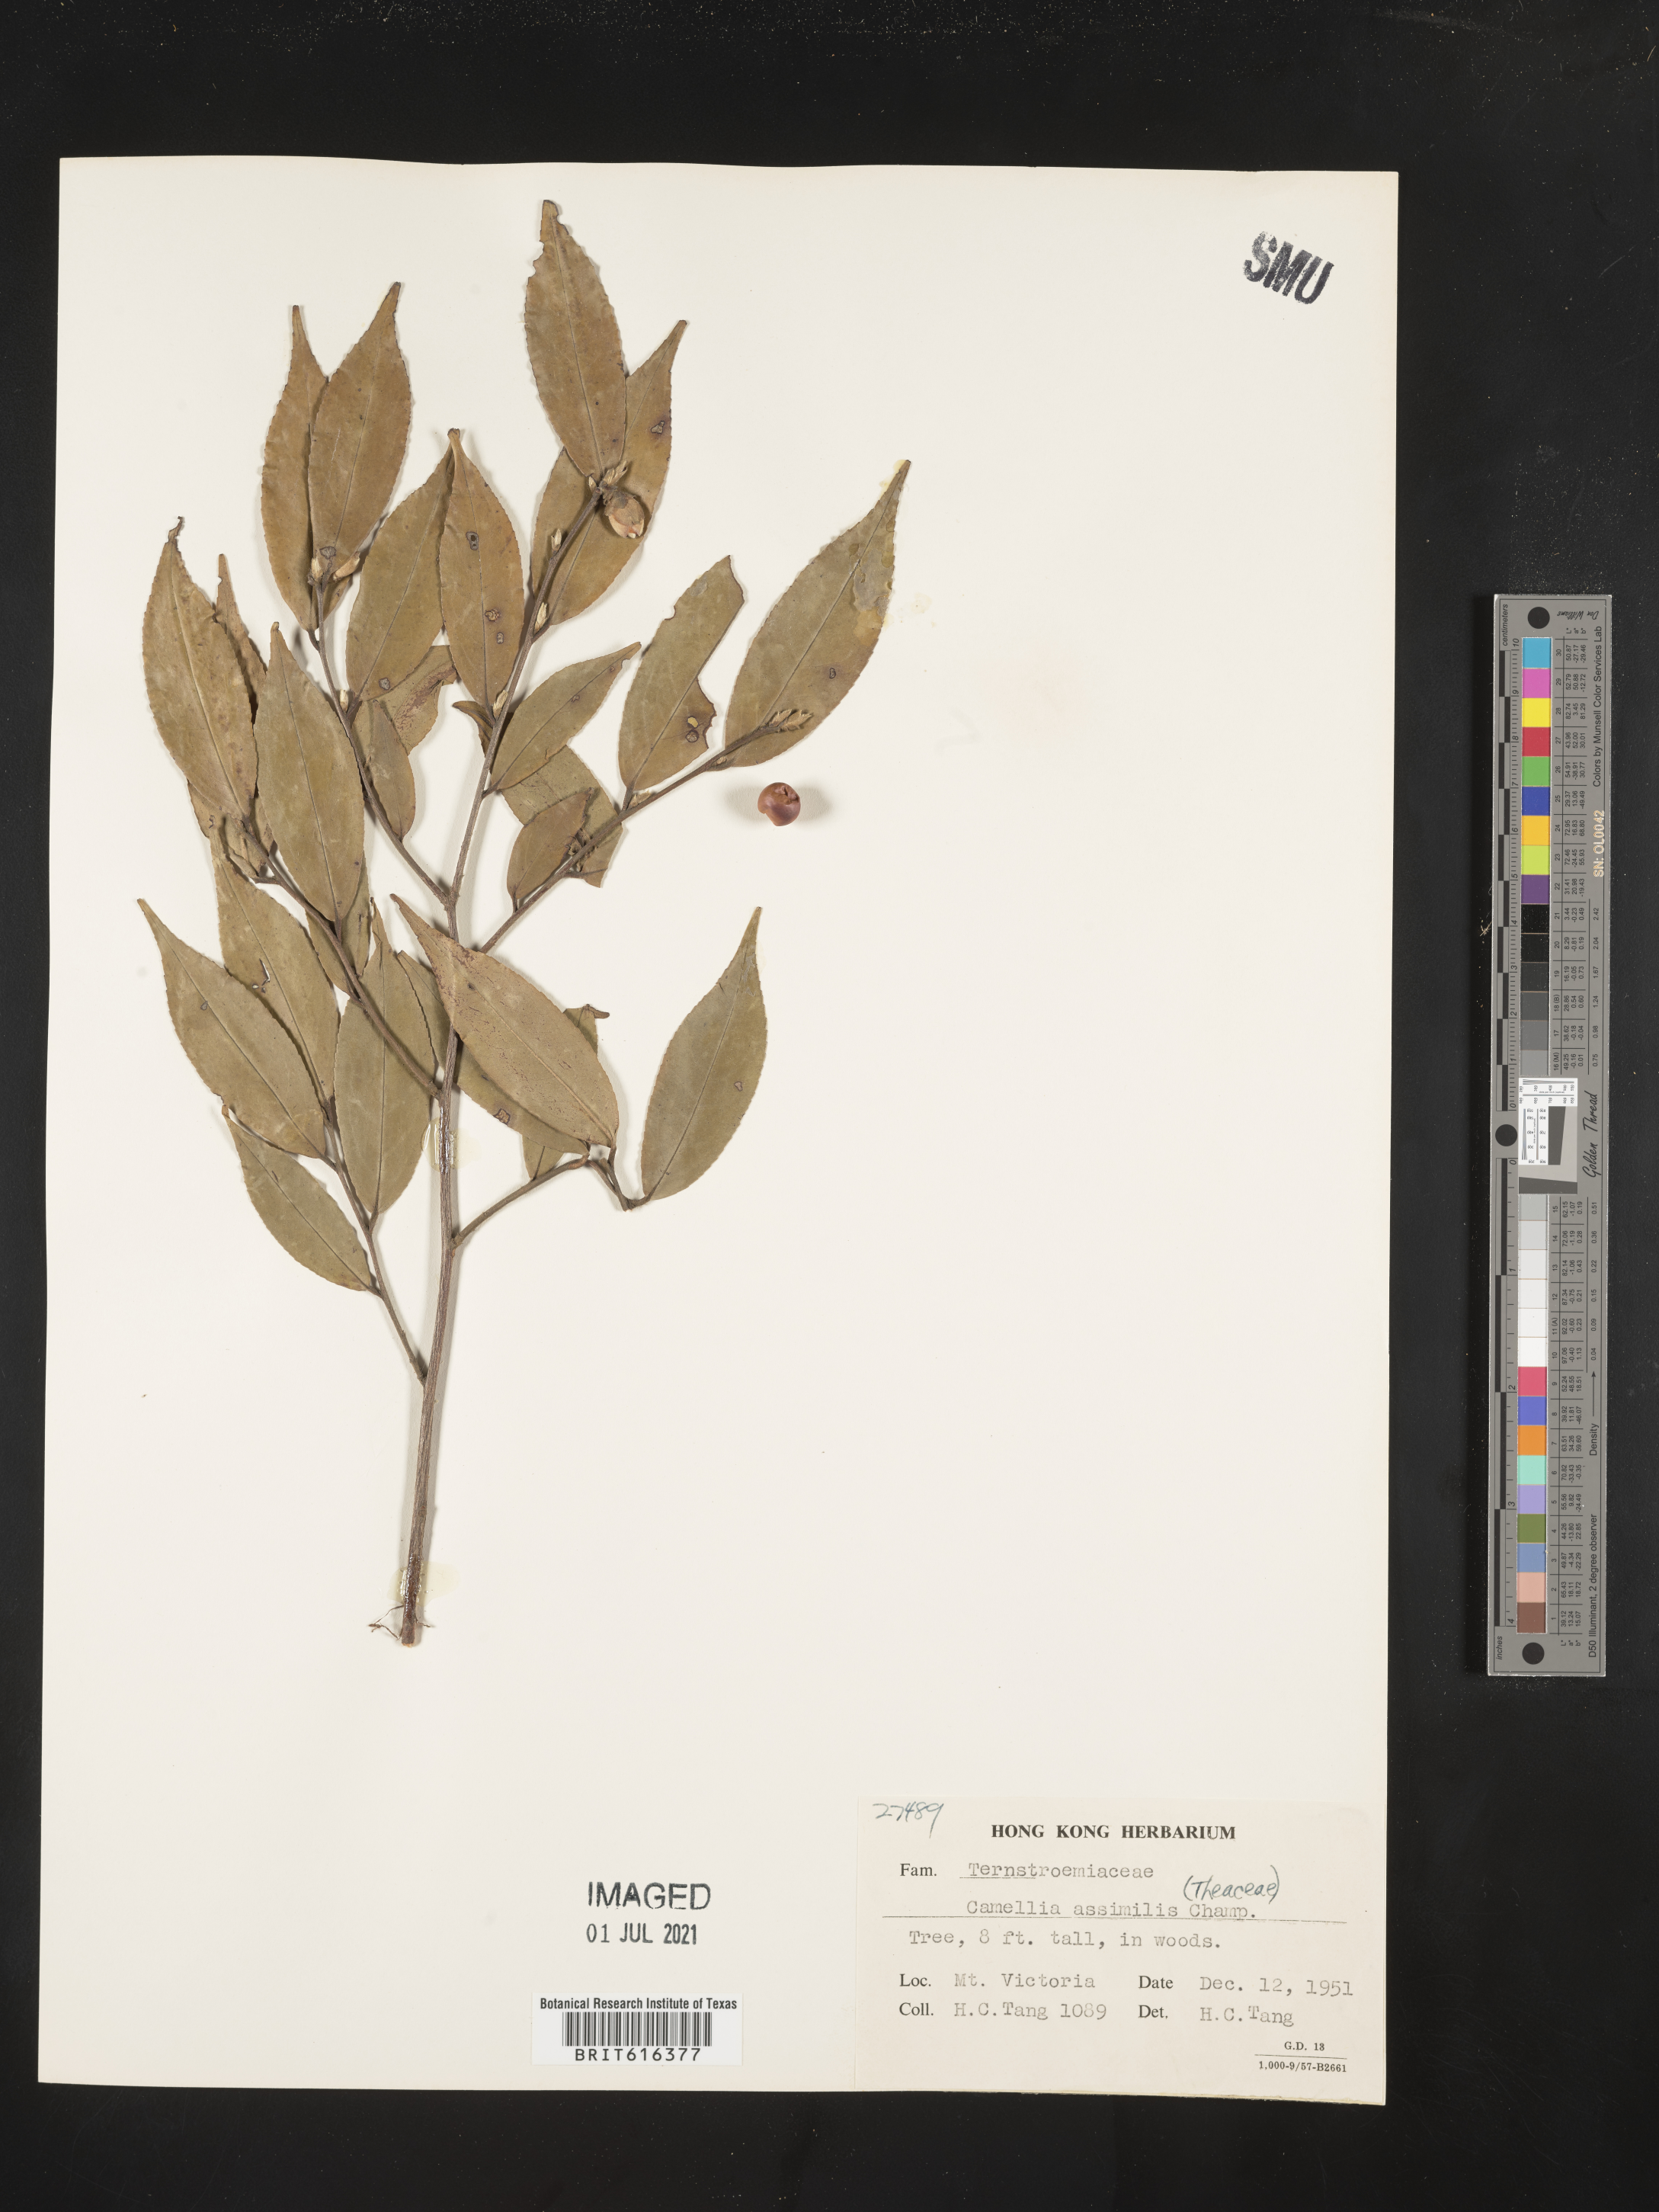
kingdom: Plantae
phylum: Tracheophyta
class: Magnoliopsida
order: Ericales
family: Theaceae
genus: Camellia
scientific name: Camellia caudata
